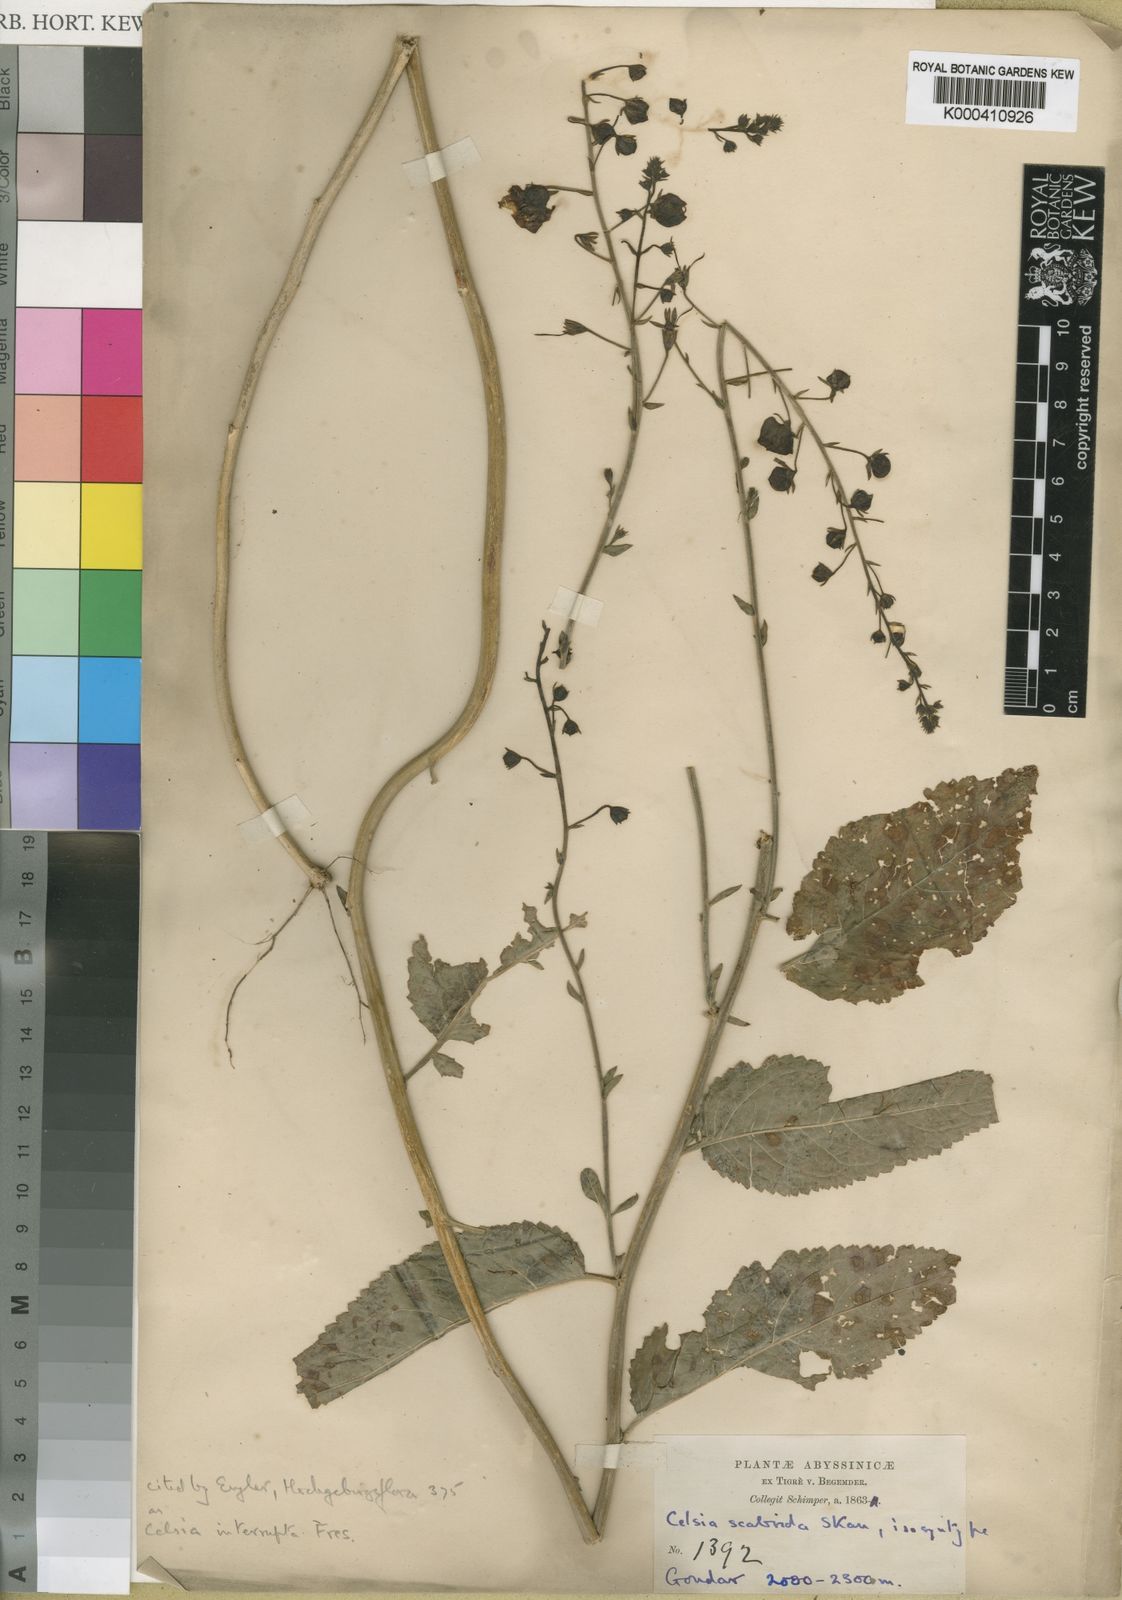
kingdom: Plantae
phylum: Tracheophyta
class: Magnoliopsida
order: Lamiales
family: Scrophulariaceae
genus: Verbascum
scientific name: Verbascum scabridum
